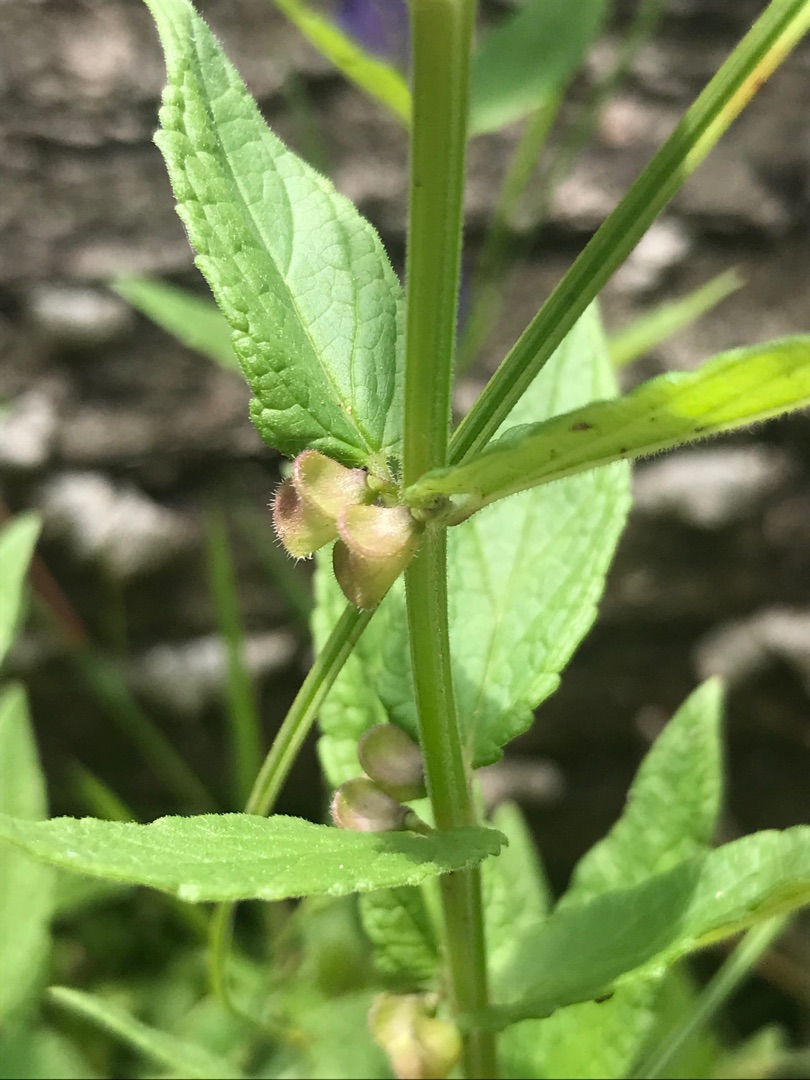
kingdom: Plantae
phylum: Tracheophyta
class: Magnoliopsida
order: Lamiales
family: Lamiaceae
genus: Scutellaria
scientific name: Scutellaria galericulata
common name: Almindelig skjolddrager
